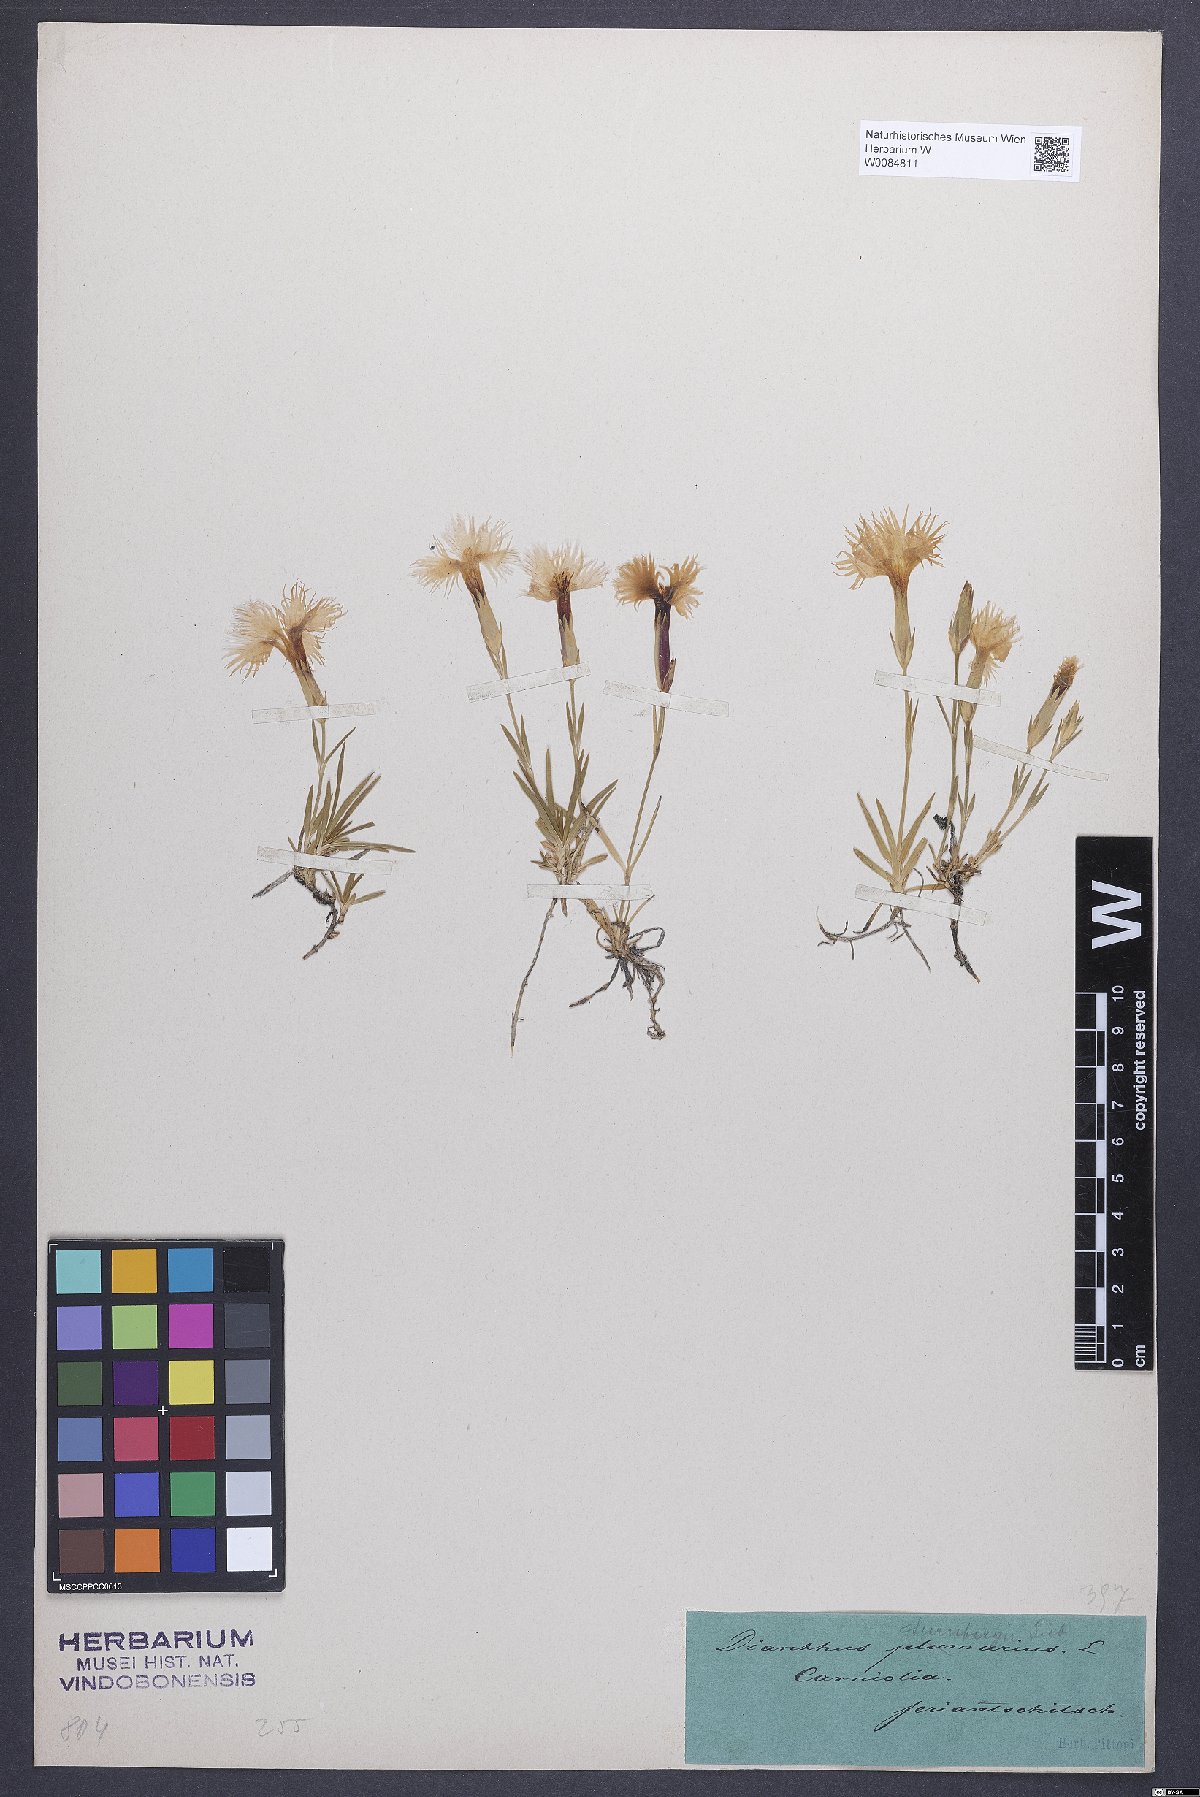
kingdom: Plantae
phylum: Tracheophyta
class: Magnoliopsida
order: Caryophyllales
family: Caryophyllaceae
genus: Dianthus
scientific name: Dianthus monspessulanus
